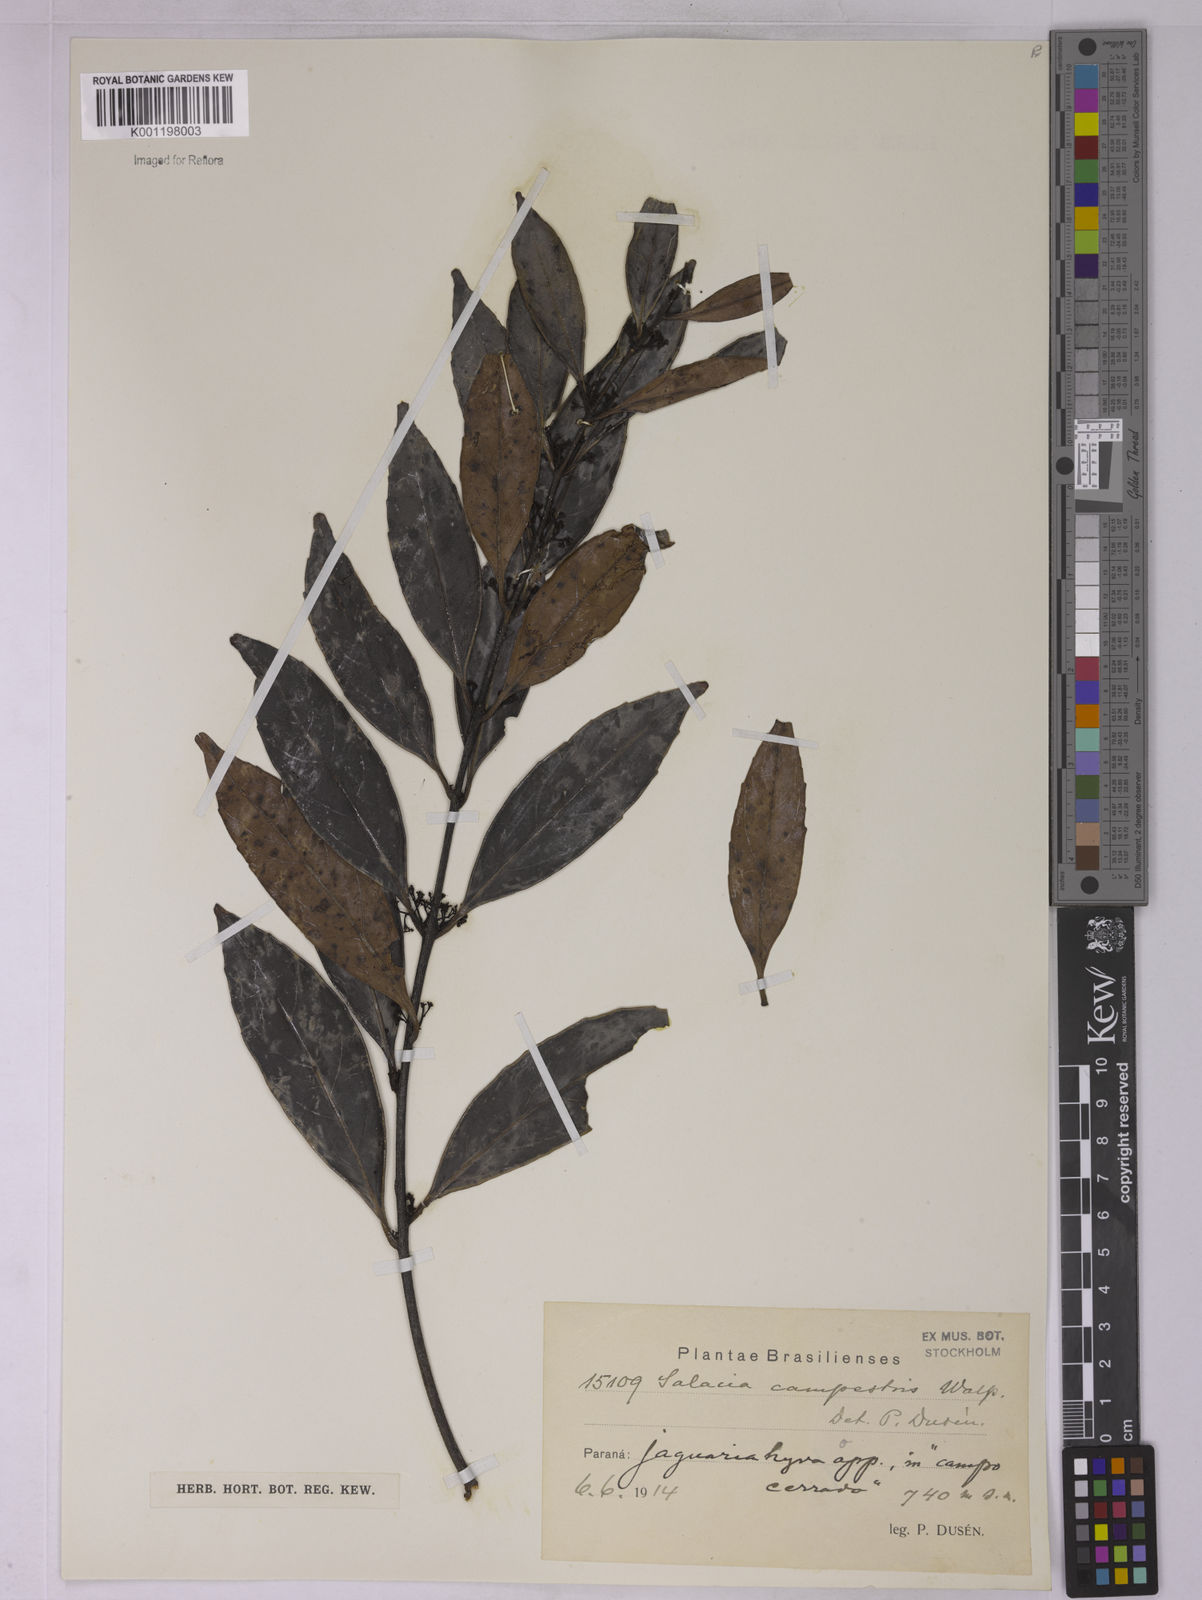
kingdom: Plantae
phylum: Tracheophyta
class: Magnoliopsida
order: Celastrales
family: Celastraceae
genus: Peritassa
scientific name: Peritassa campestris
